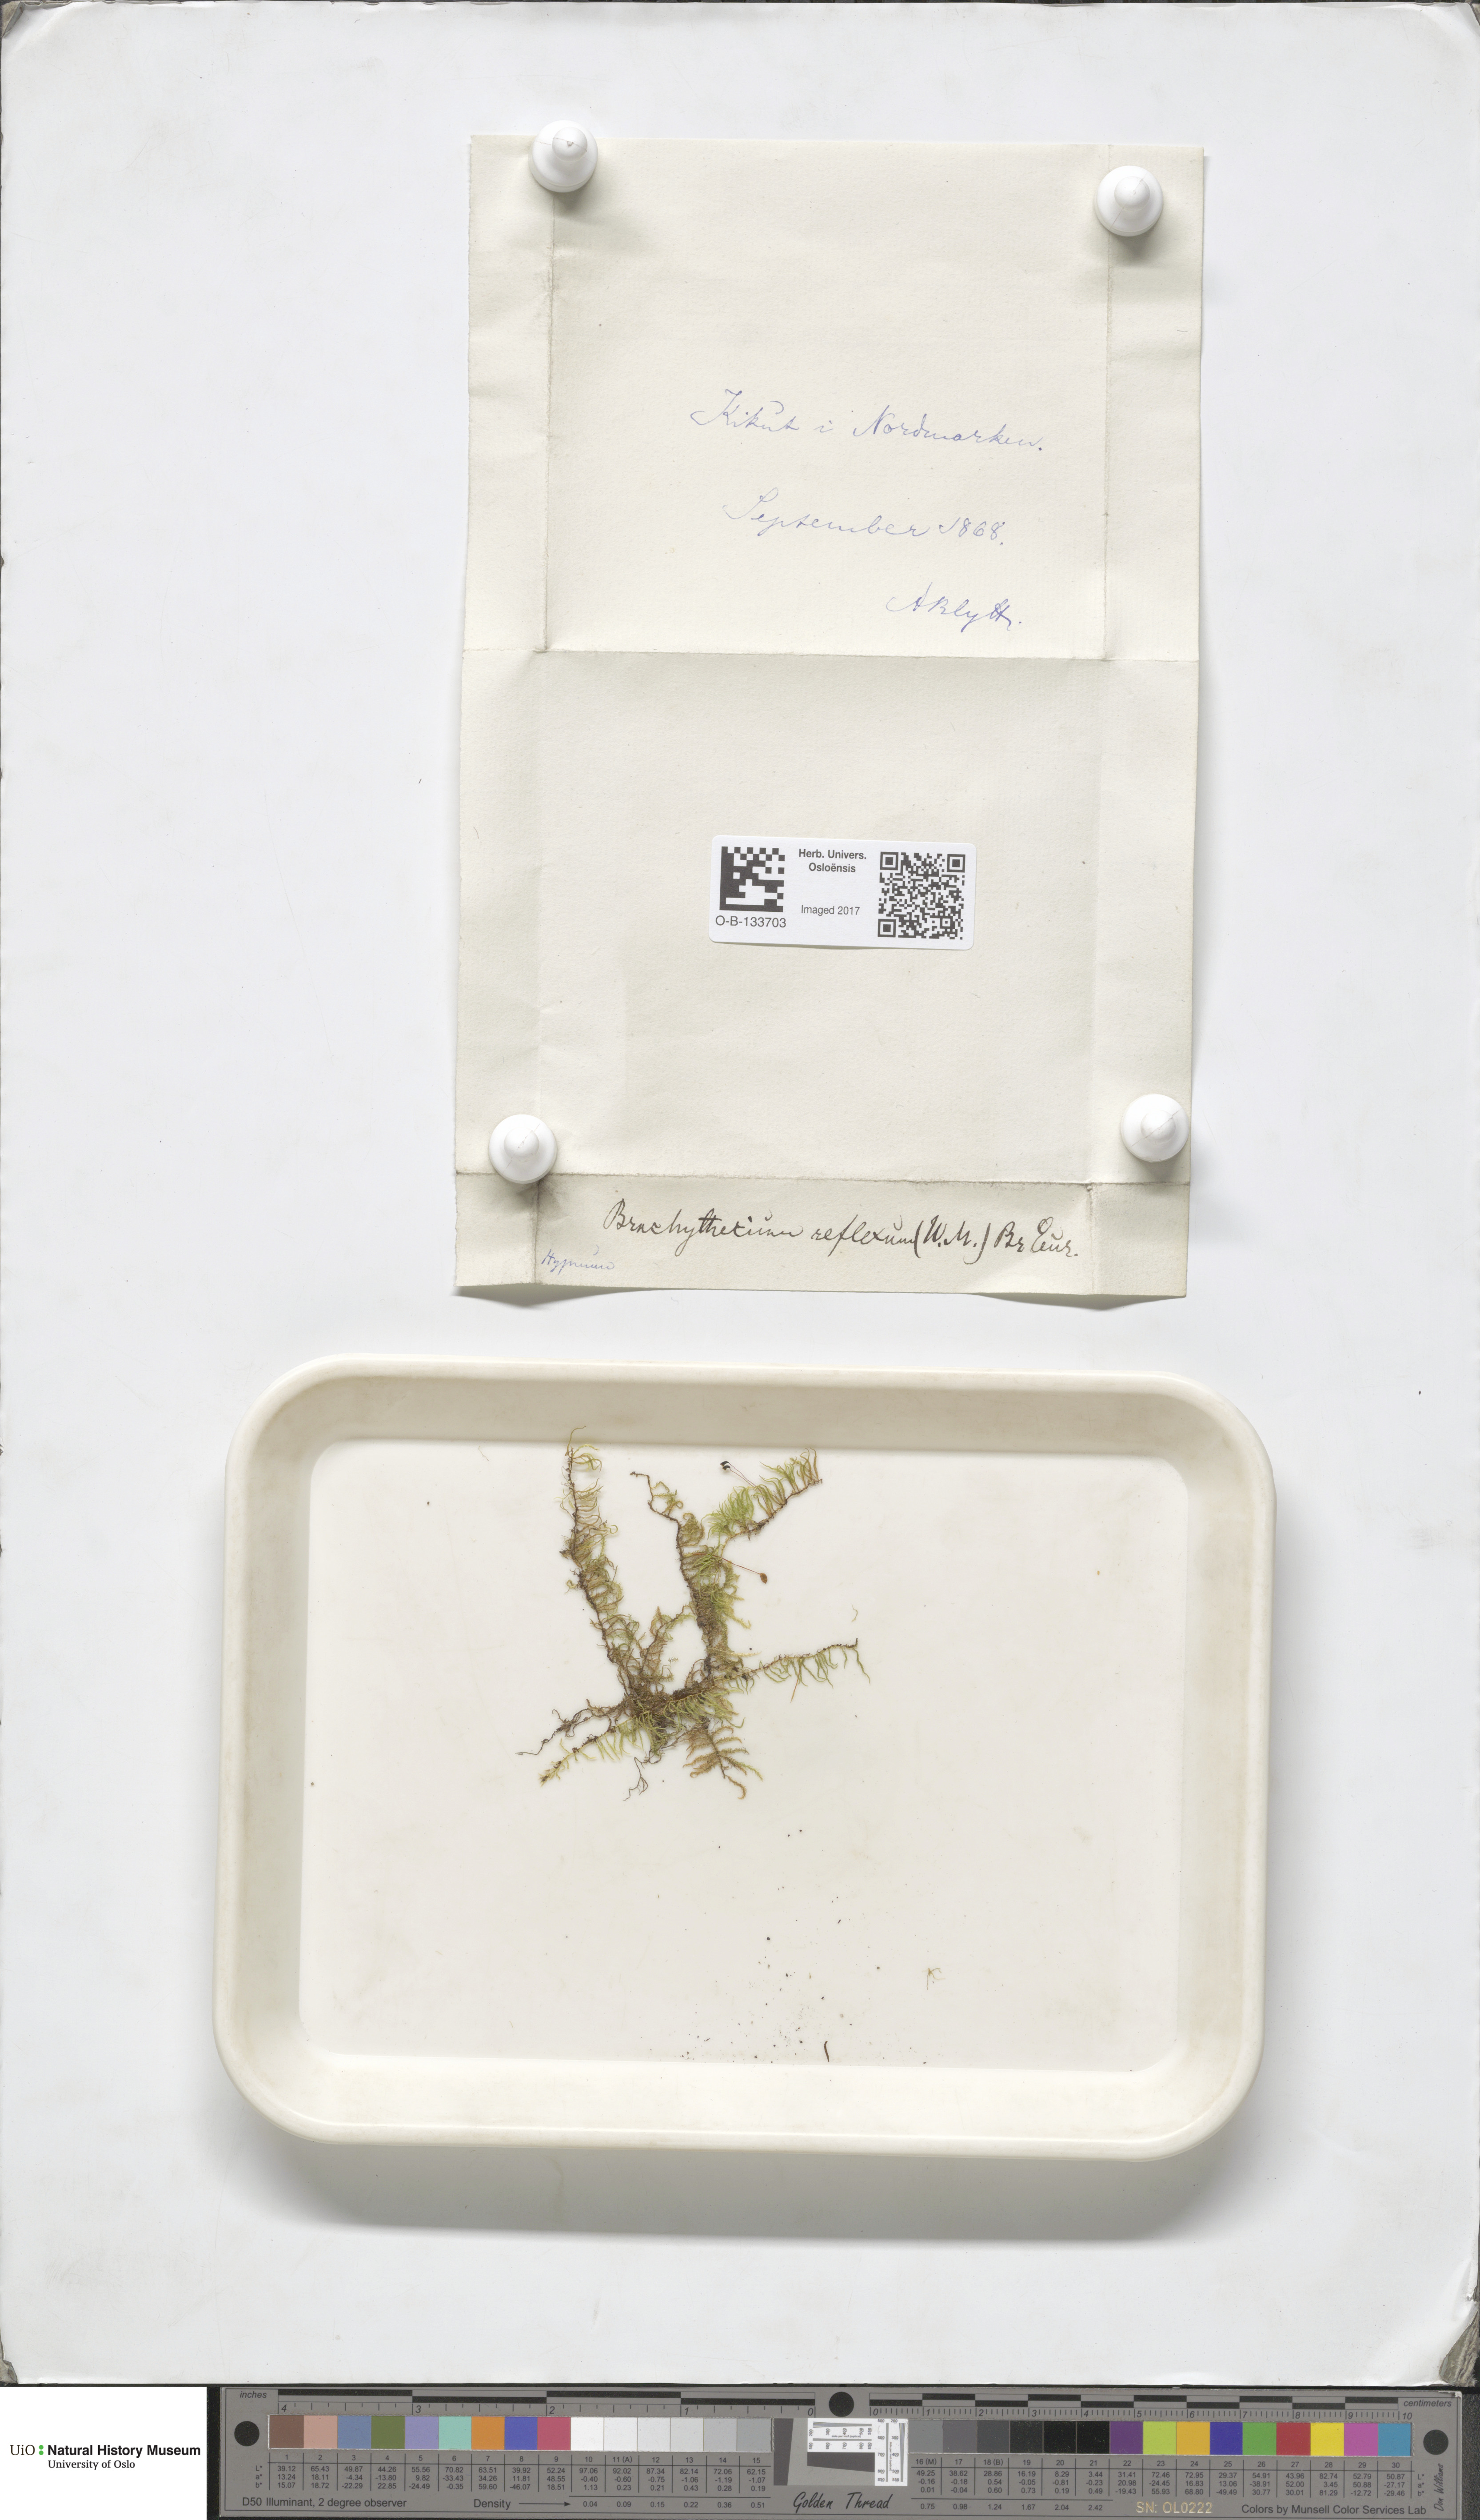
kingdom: Plantae
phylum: Bryophyta
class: Bryopsida
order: Hypnales
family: Brachytheciaceae
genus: Sciuro-hypnum
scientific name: Sciuro-hypnum reflexum
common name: Reflexed feather-moss
